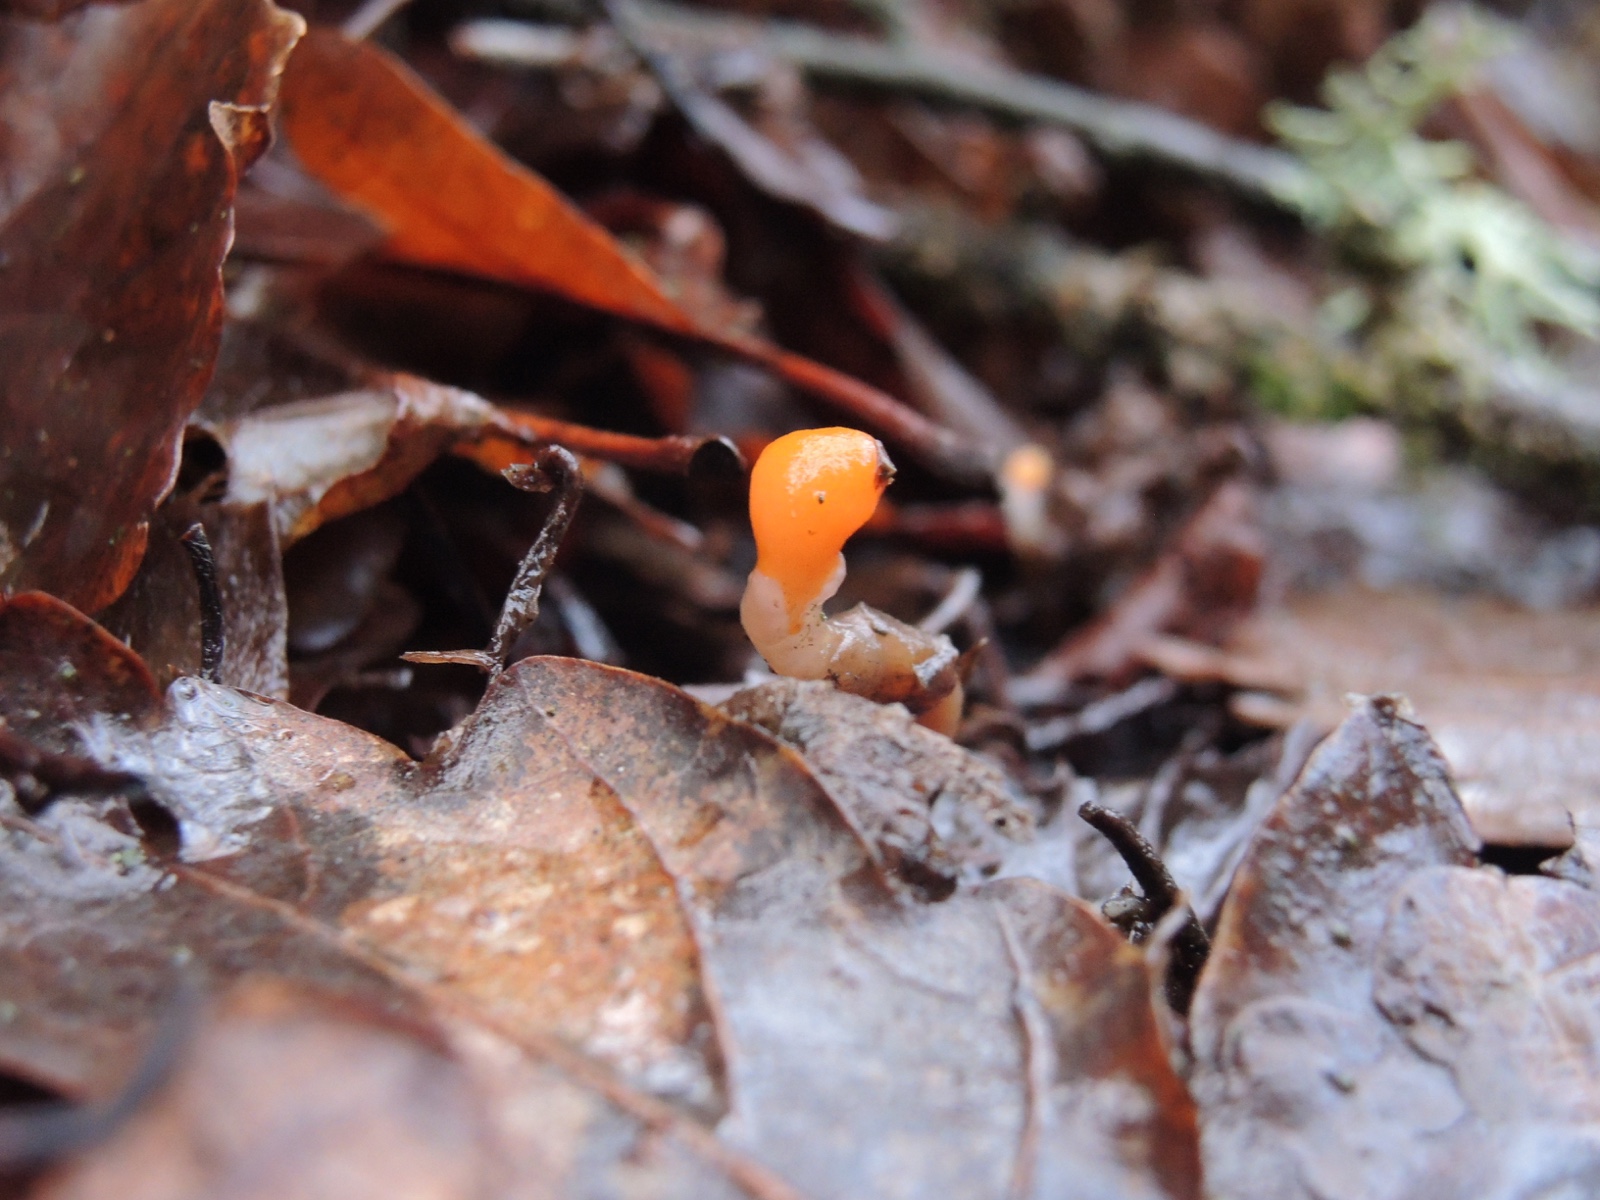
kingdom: Fungi
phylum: Ascomycota
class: Leotiomycetes
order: Helotiales
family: Cenangiaceae
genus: Mitrula
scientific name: Mitrula paludosa
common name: gul nøkketunge
